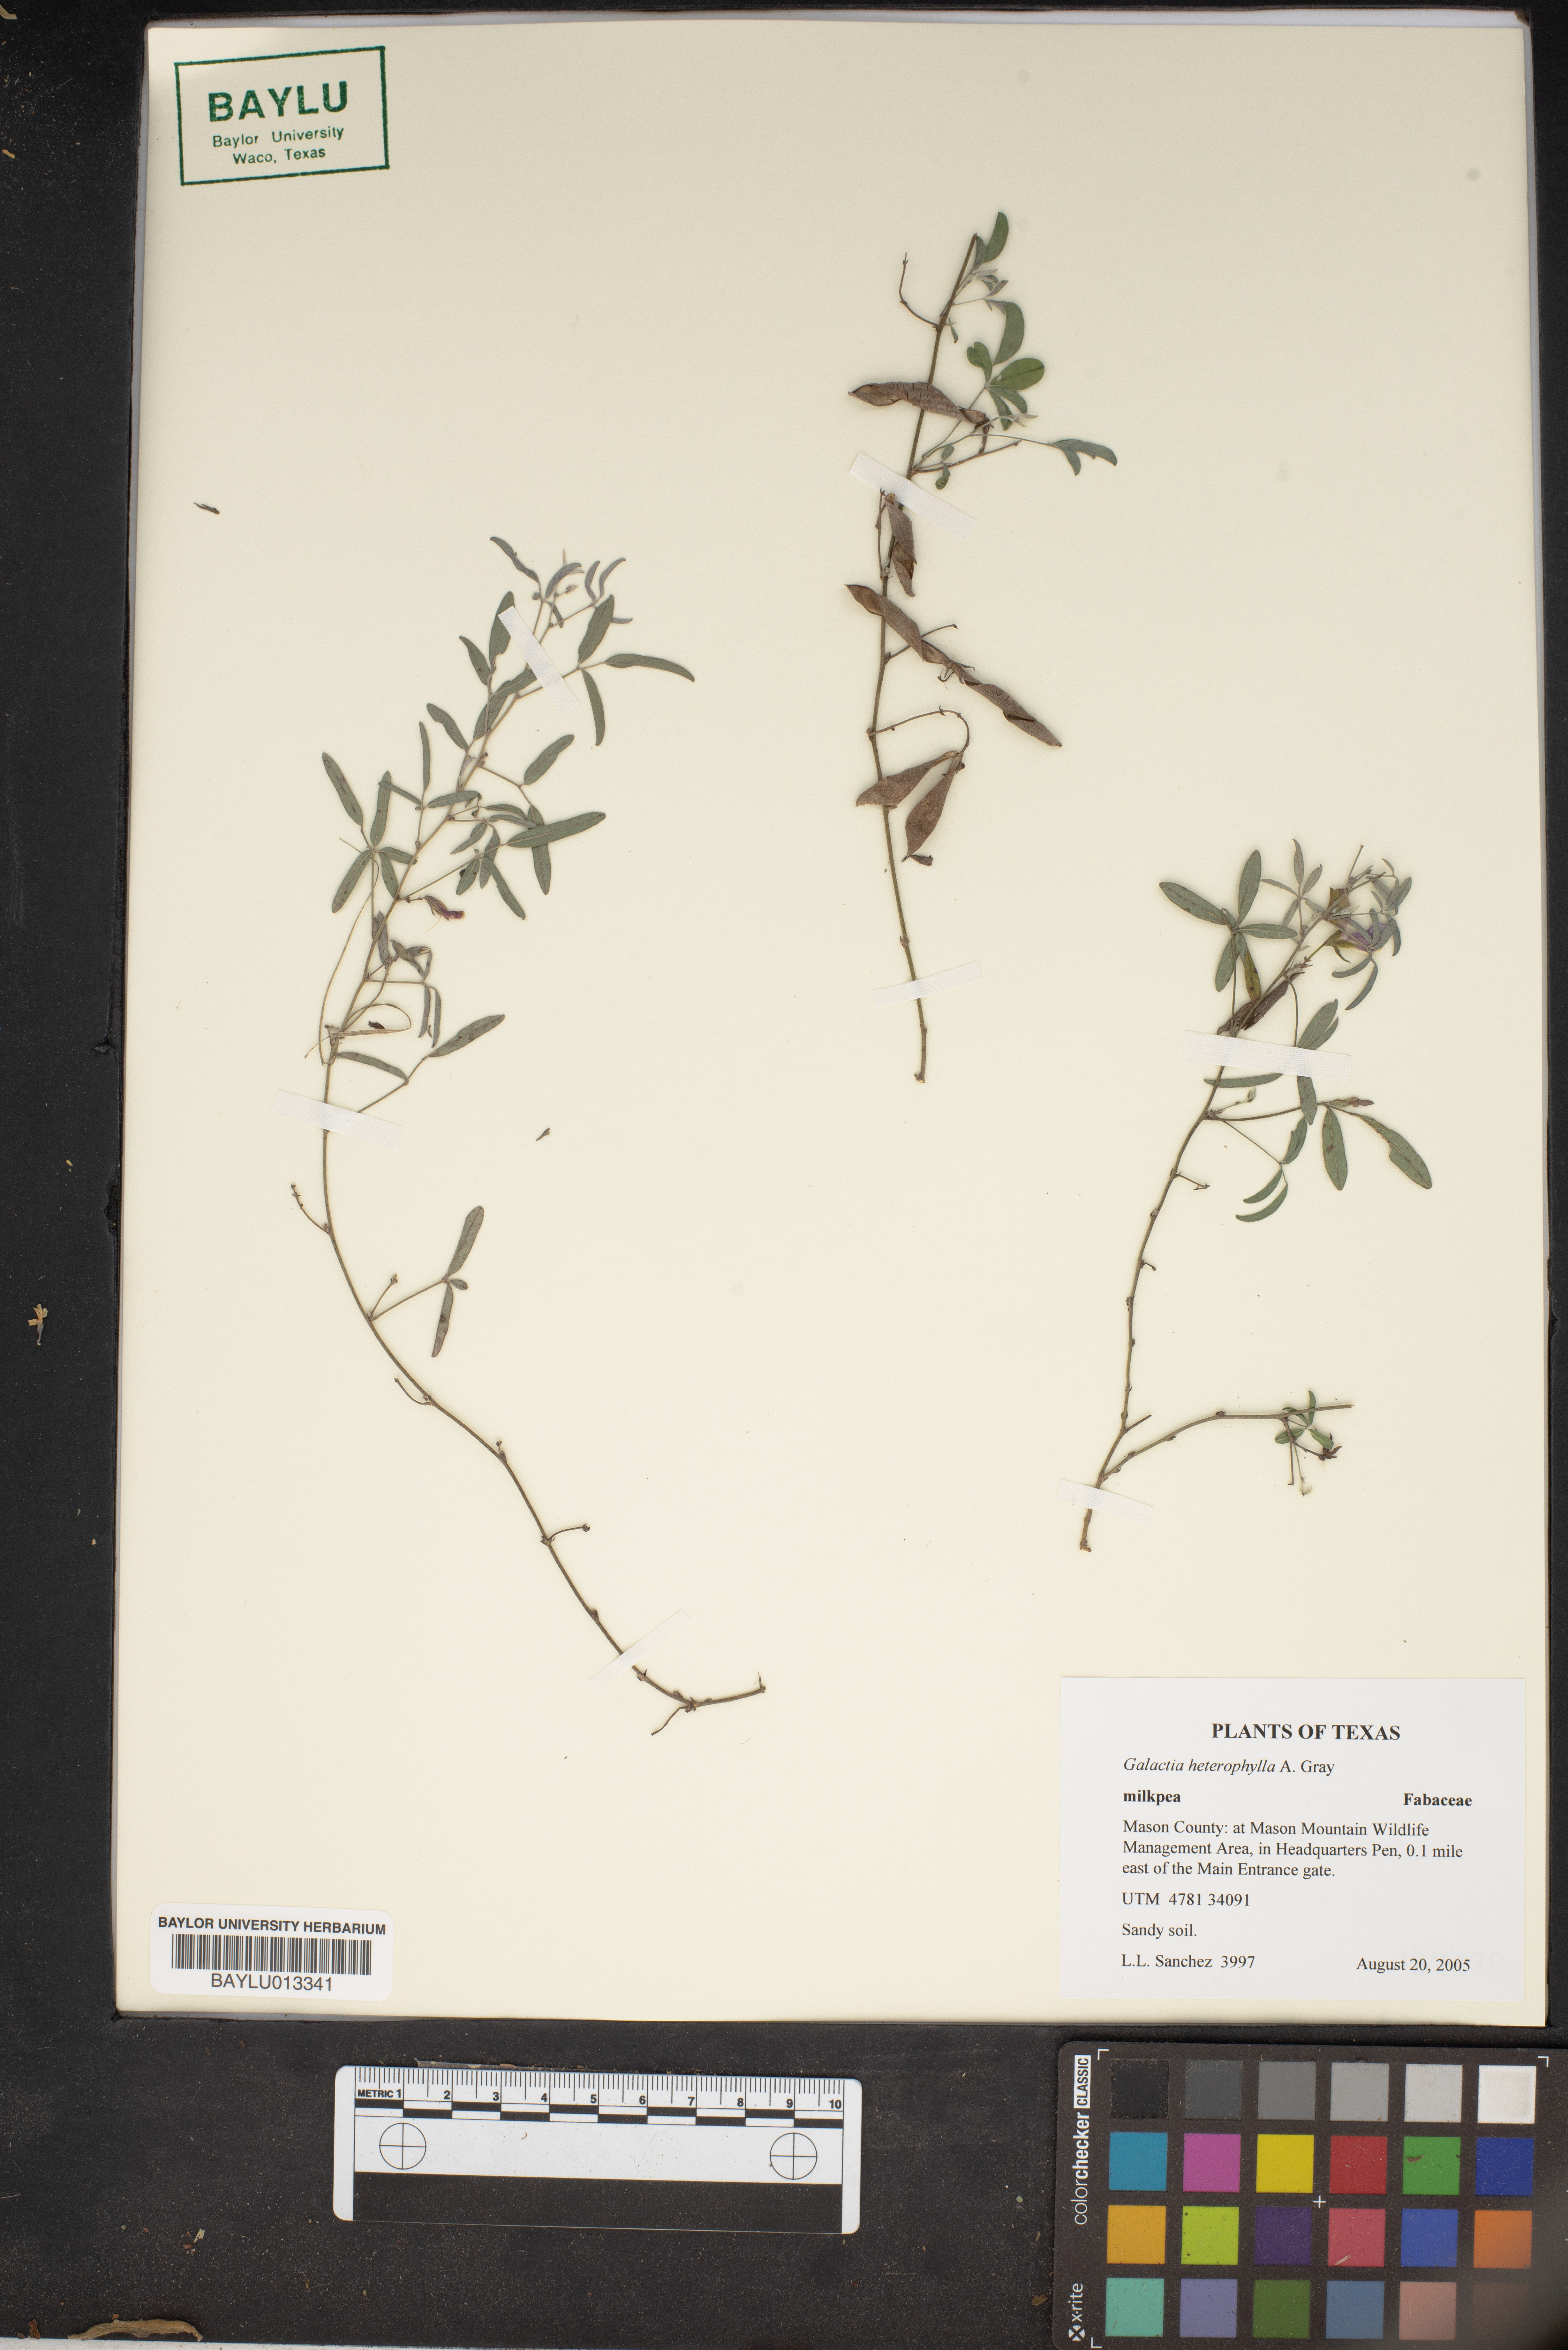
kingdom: Plantae
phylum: Tracheophyta
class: Magnoliopsida
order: Fabales
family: Fabaceae
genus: Galactia
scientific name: Galactia heterophylla
